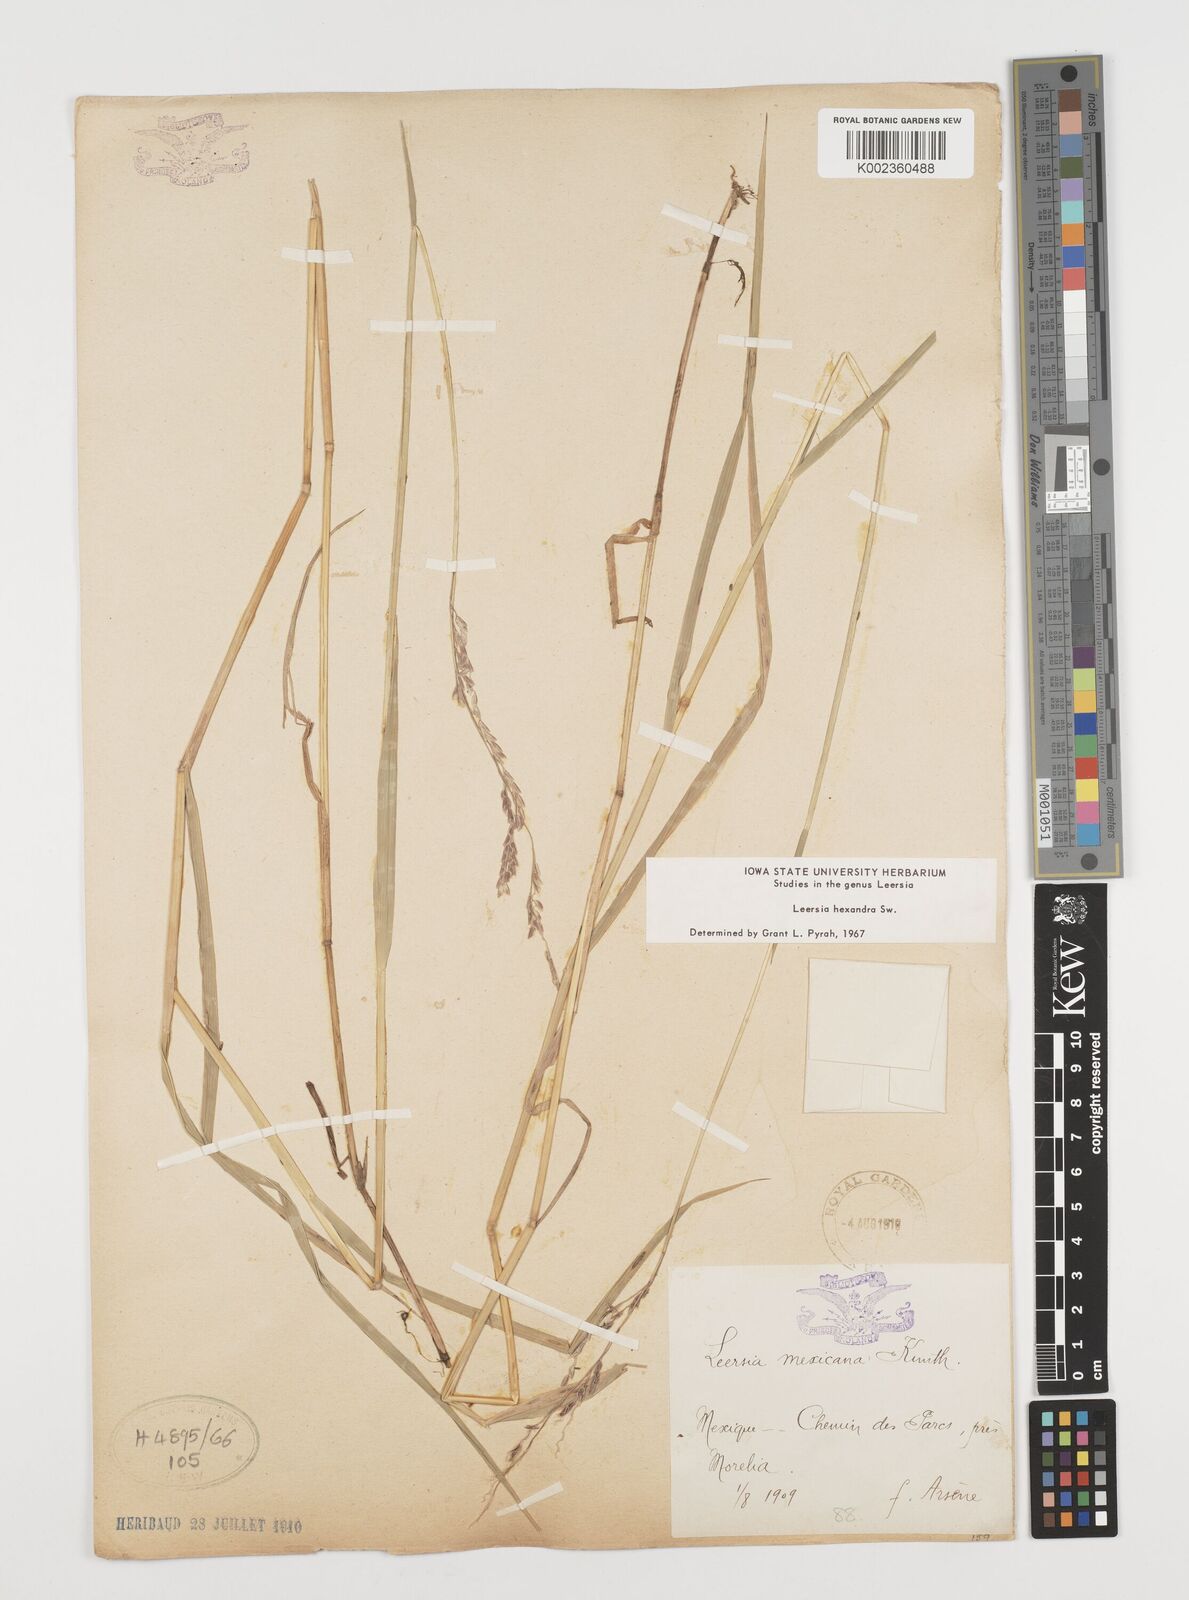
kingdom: Plantae
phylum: Tracheophyta
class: Liliopsida
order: Poales
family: Poaceae
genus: Leersia
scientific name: Leersia hexandra
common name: Southern cut grass
